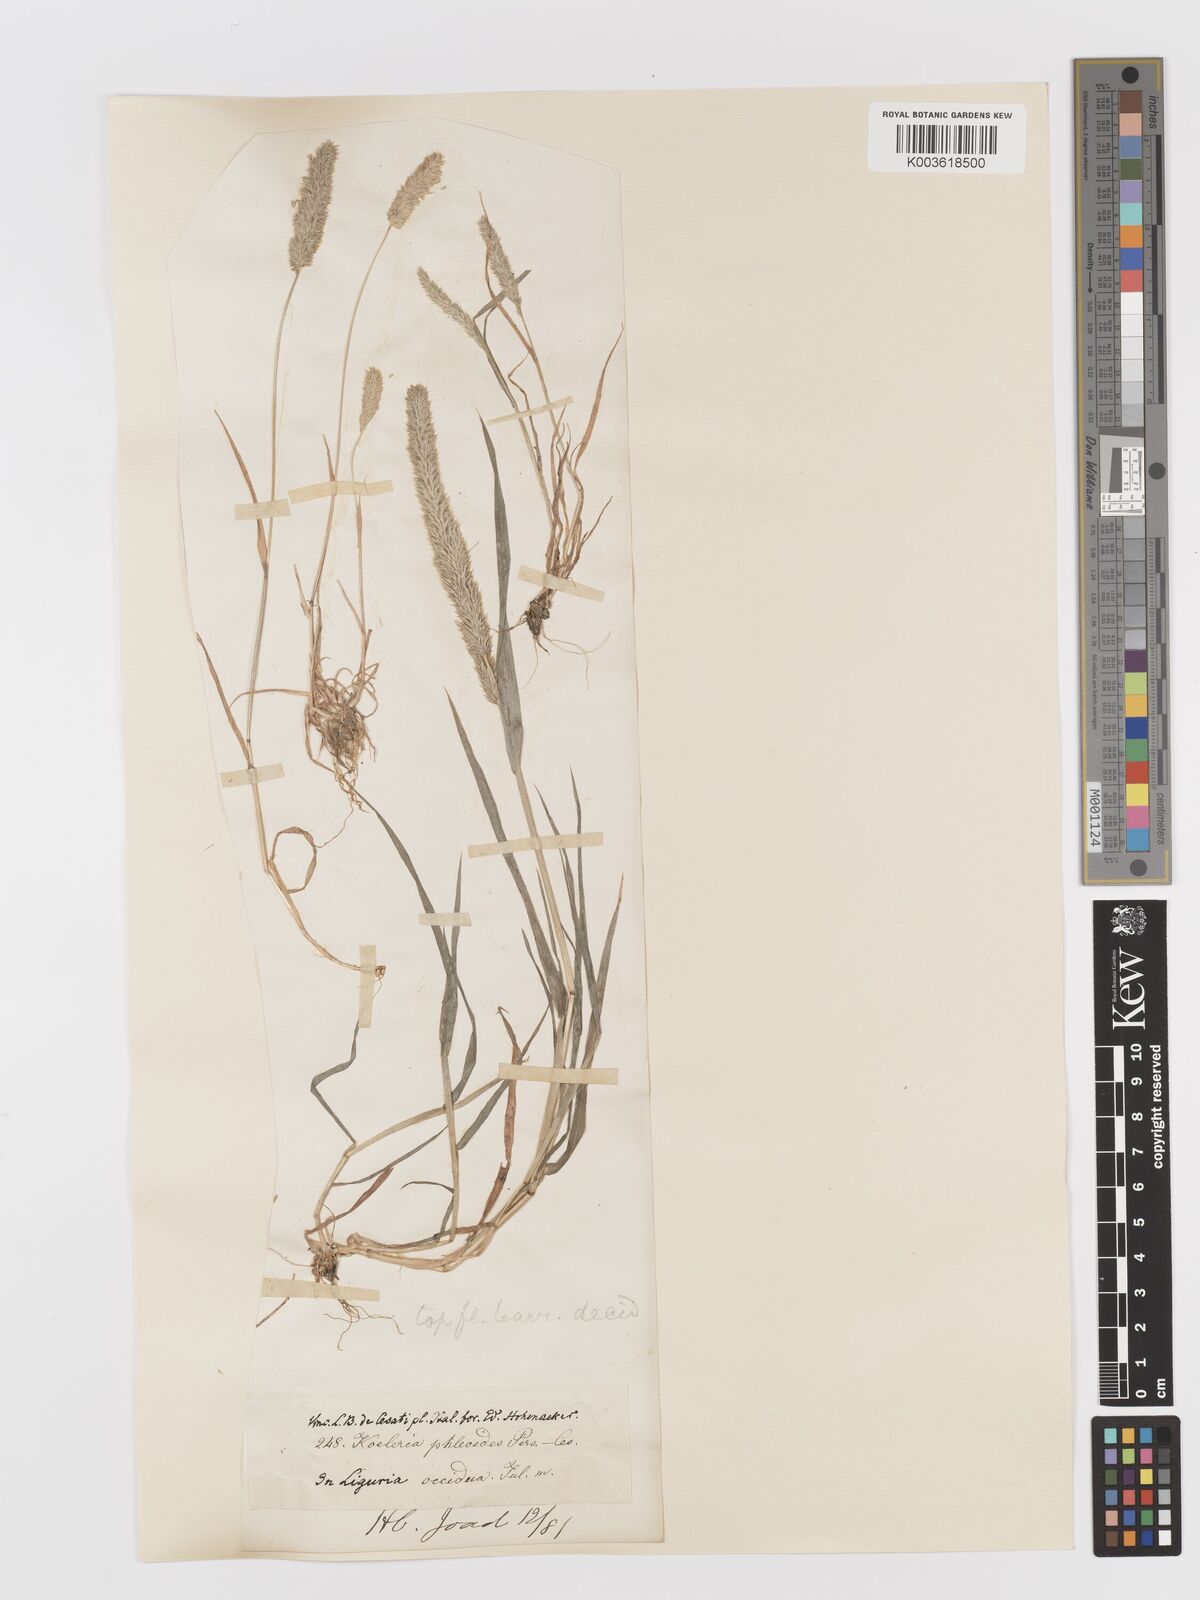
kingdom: Plantae
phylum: Tracheophyta
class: Liliopsida
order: Poales
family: Poaceae
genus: Rostraria
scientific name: Rostraria cristata
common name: Mediterranean hair-grass
